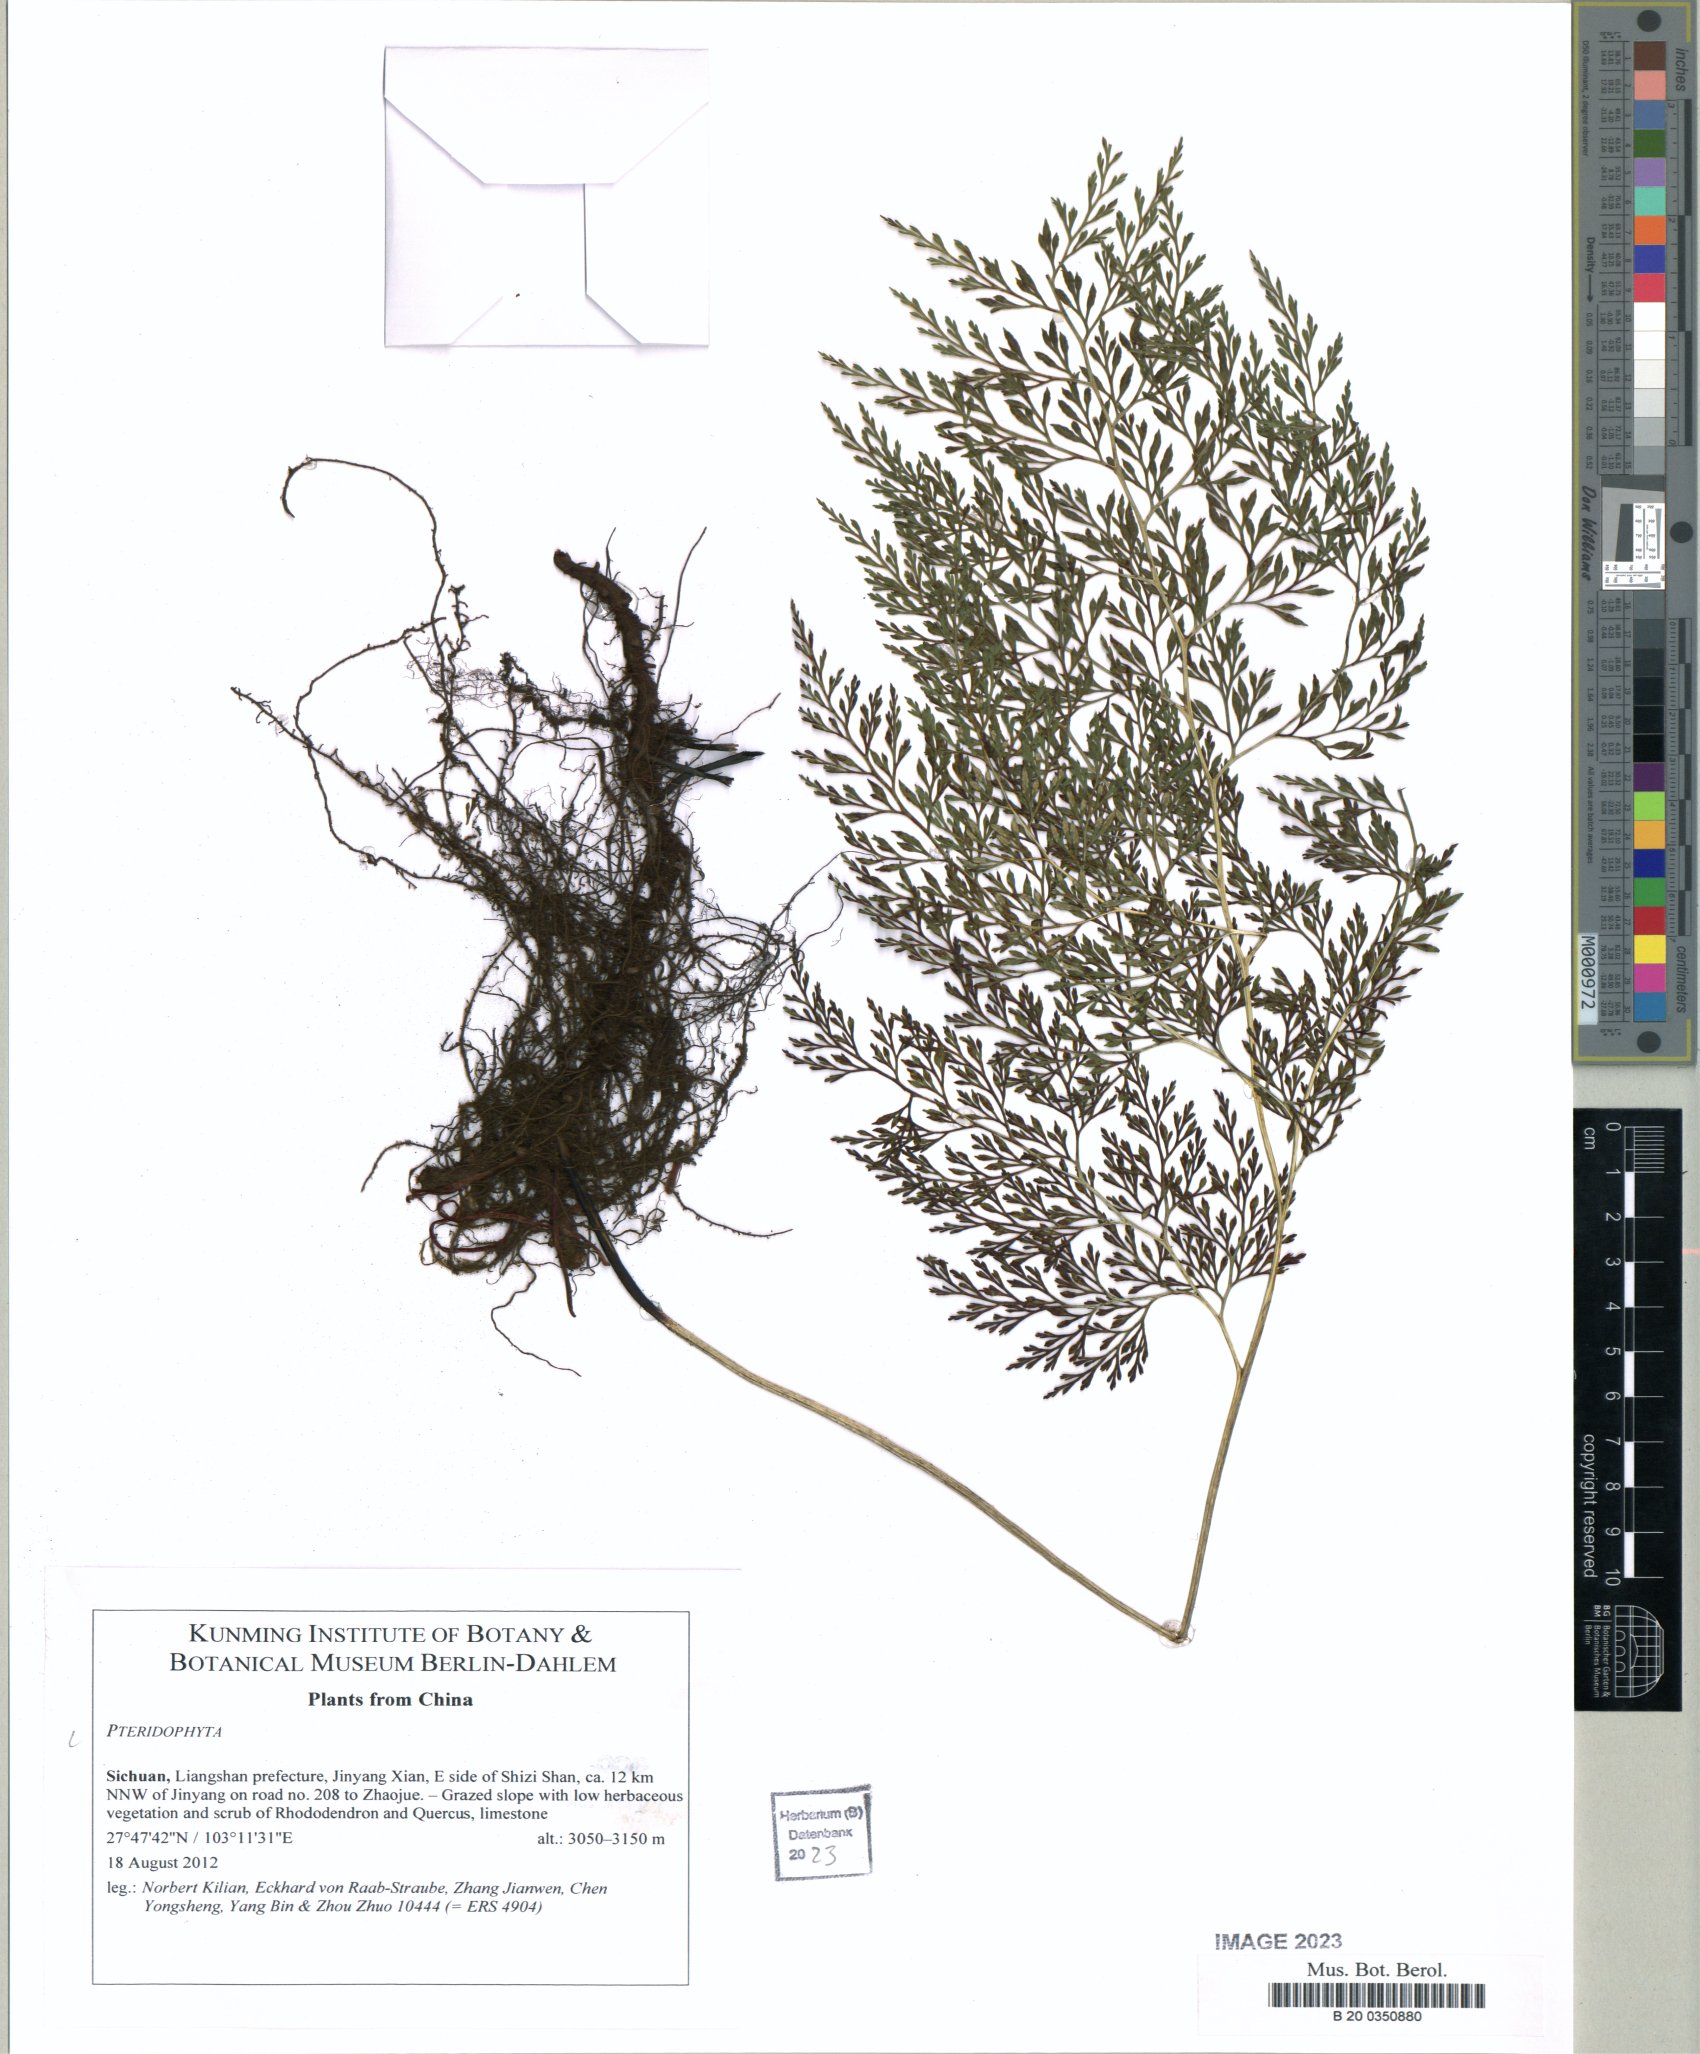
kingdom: Plantae
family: Pteridophyta
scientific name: Pteridophyta
